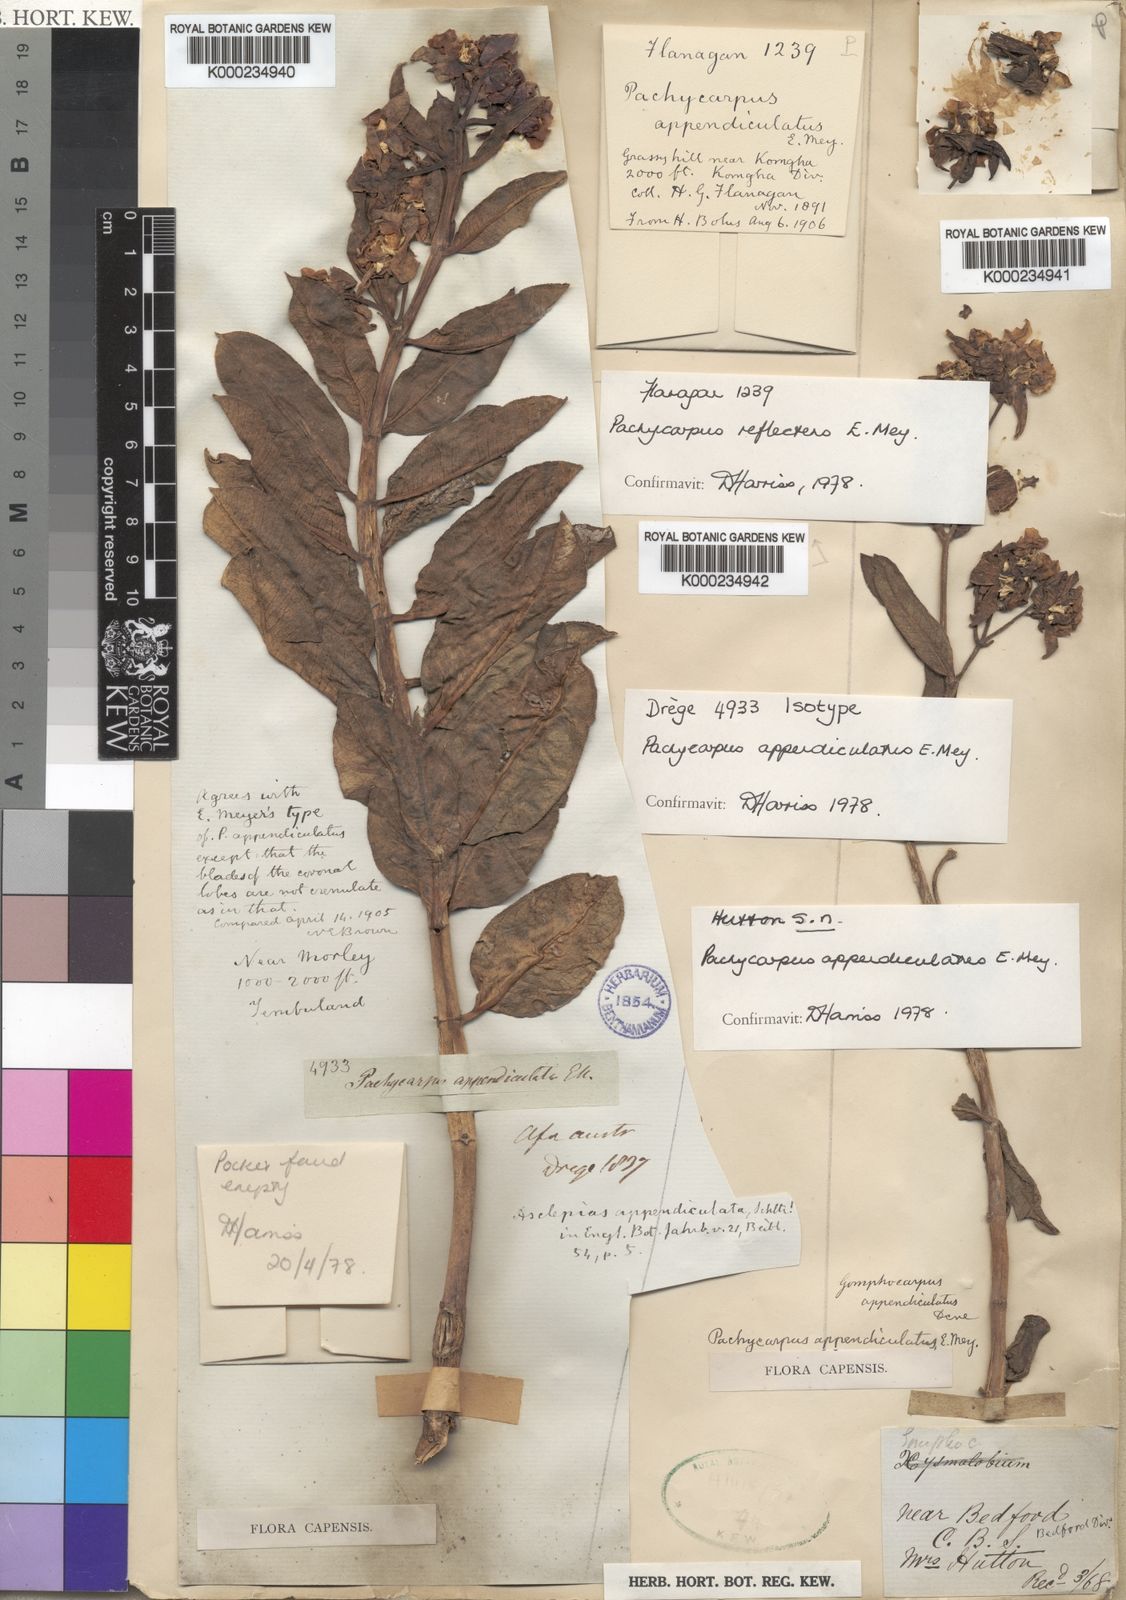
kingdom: Plantae
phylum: Tracheophyta
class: Magnoliopsida
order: Gentianales
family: Apocynaceae
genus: Pachycarpus
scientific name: Pachycarpus appendiculatus
